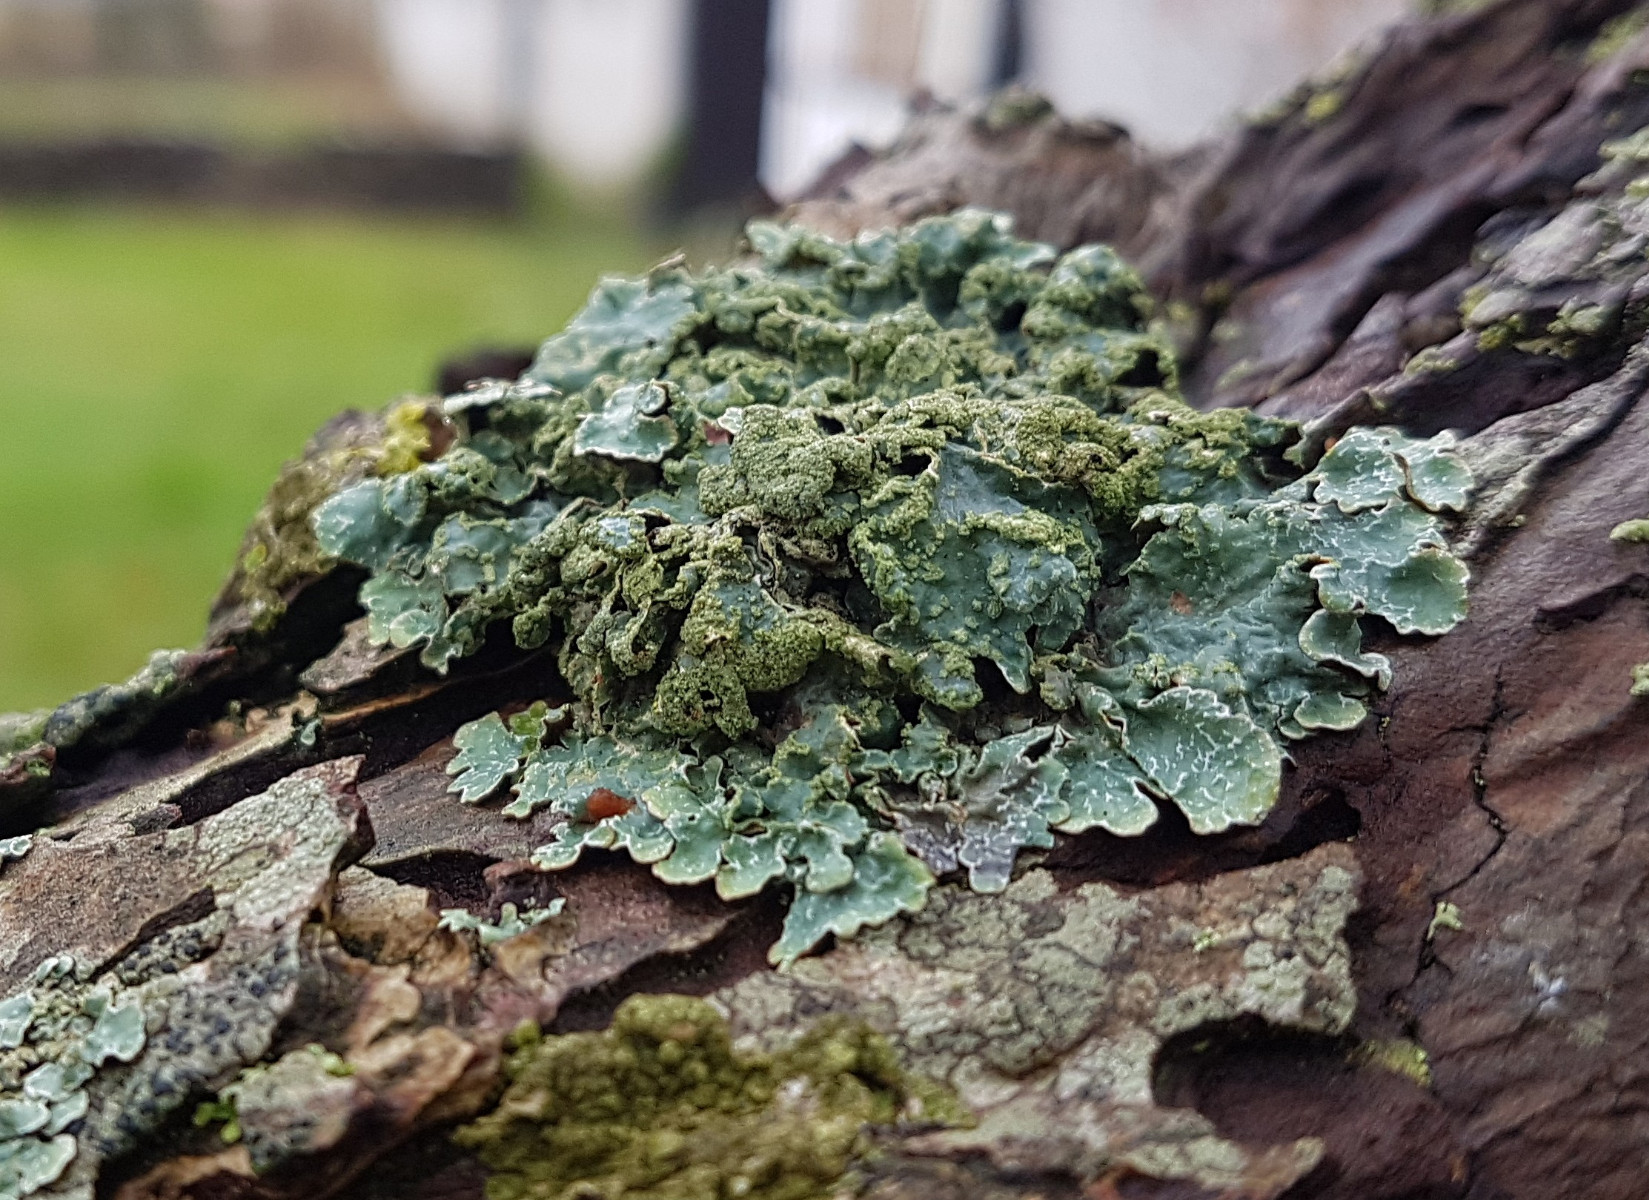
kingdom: Fungi
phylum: Ascomycota
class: Lecanoromycetes
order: Lecanorales
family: Parmeliaceae
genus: Parmelia
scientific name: Parmelia sulcata
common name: rynket skållav
